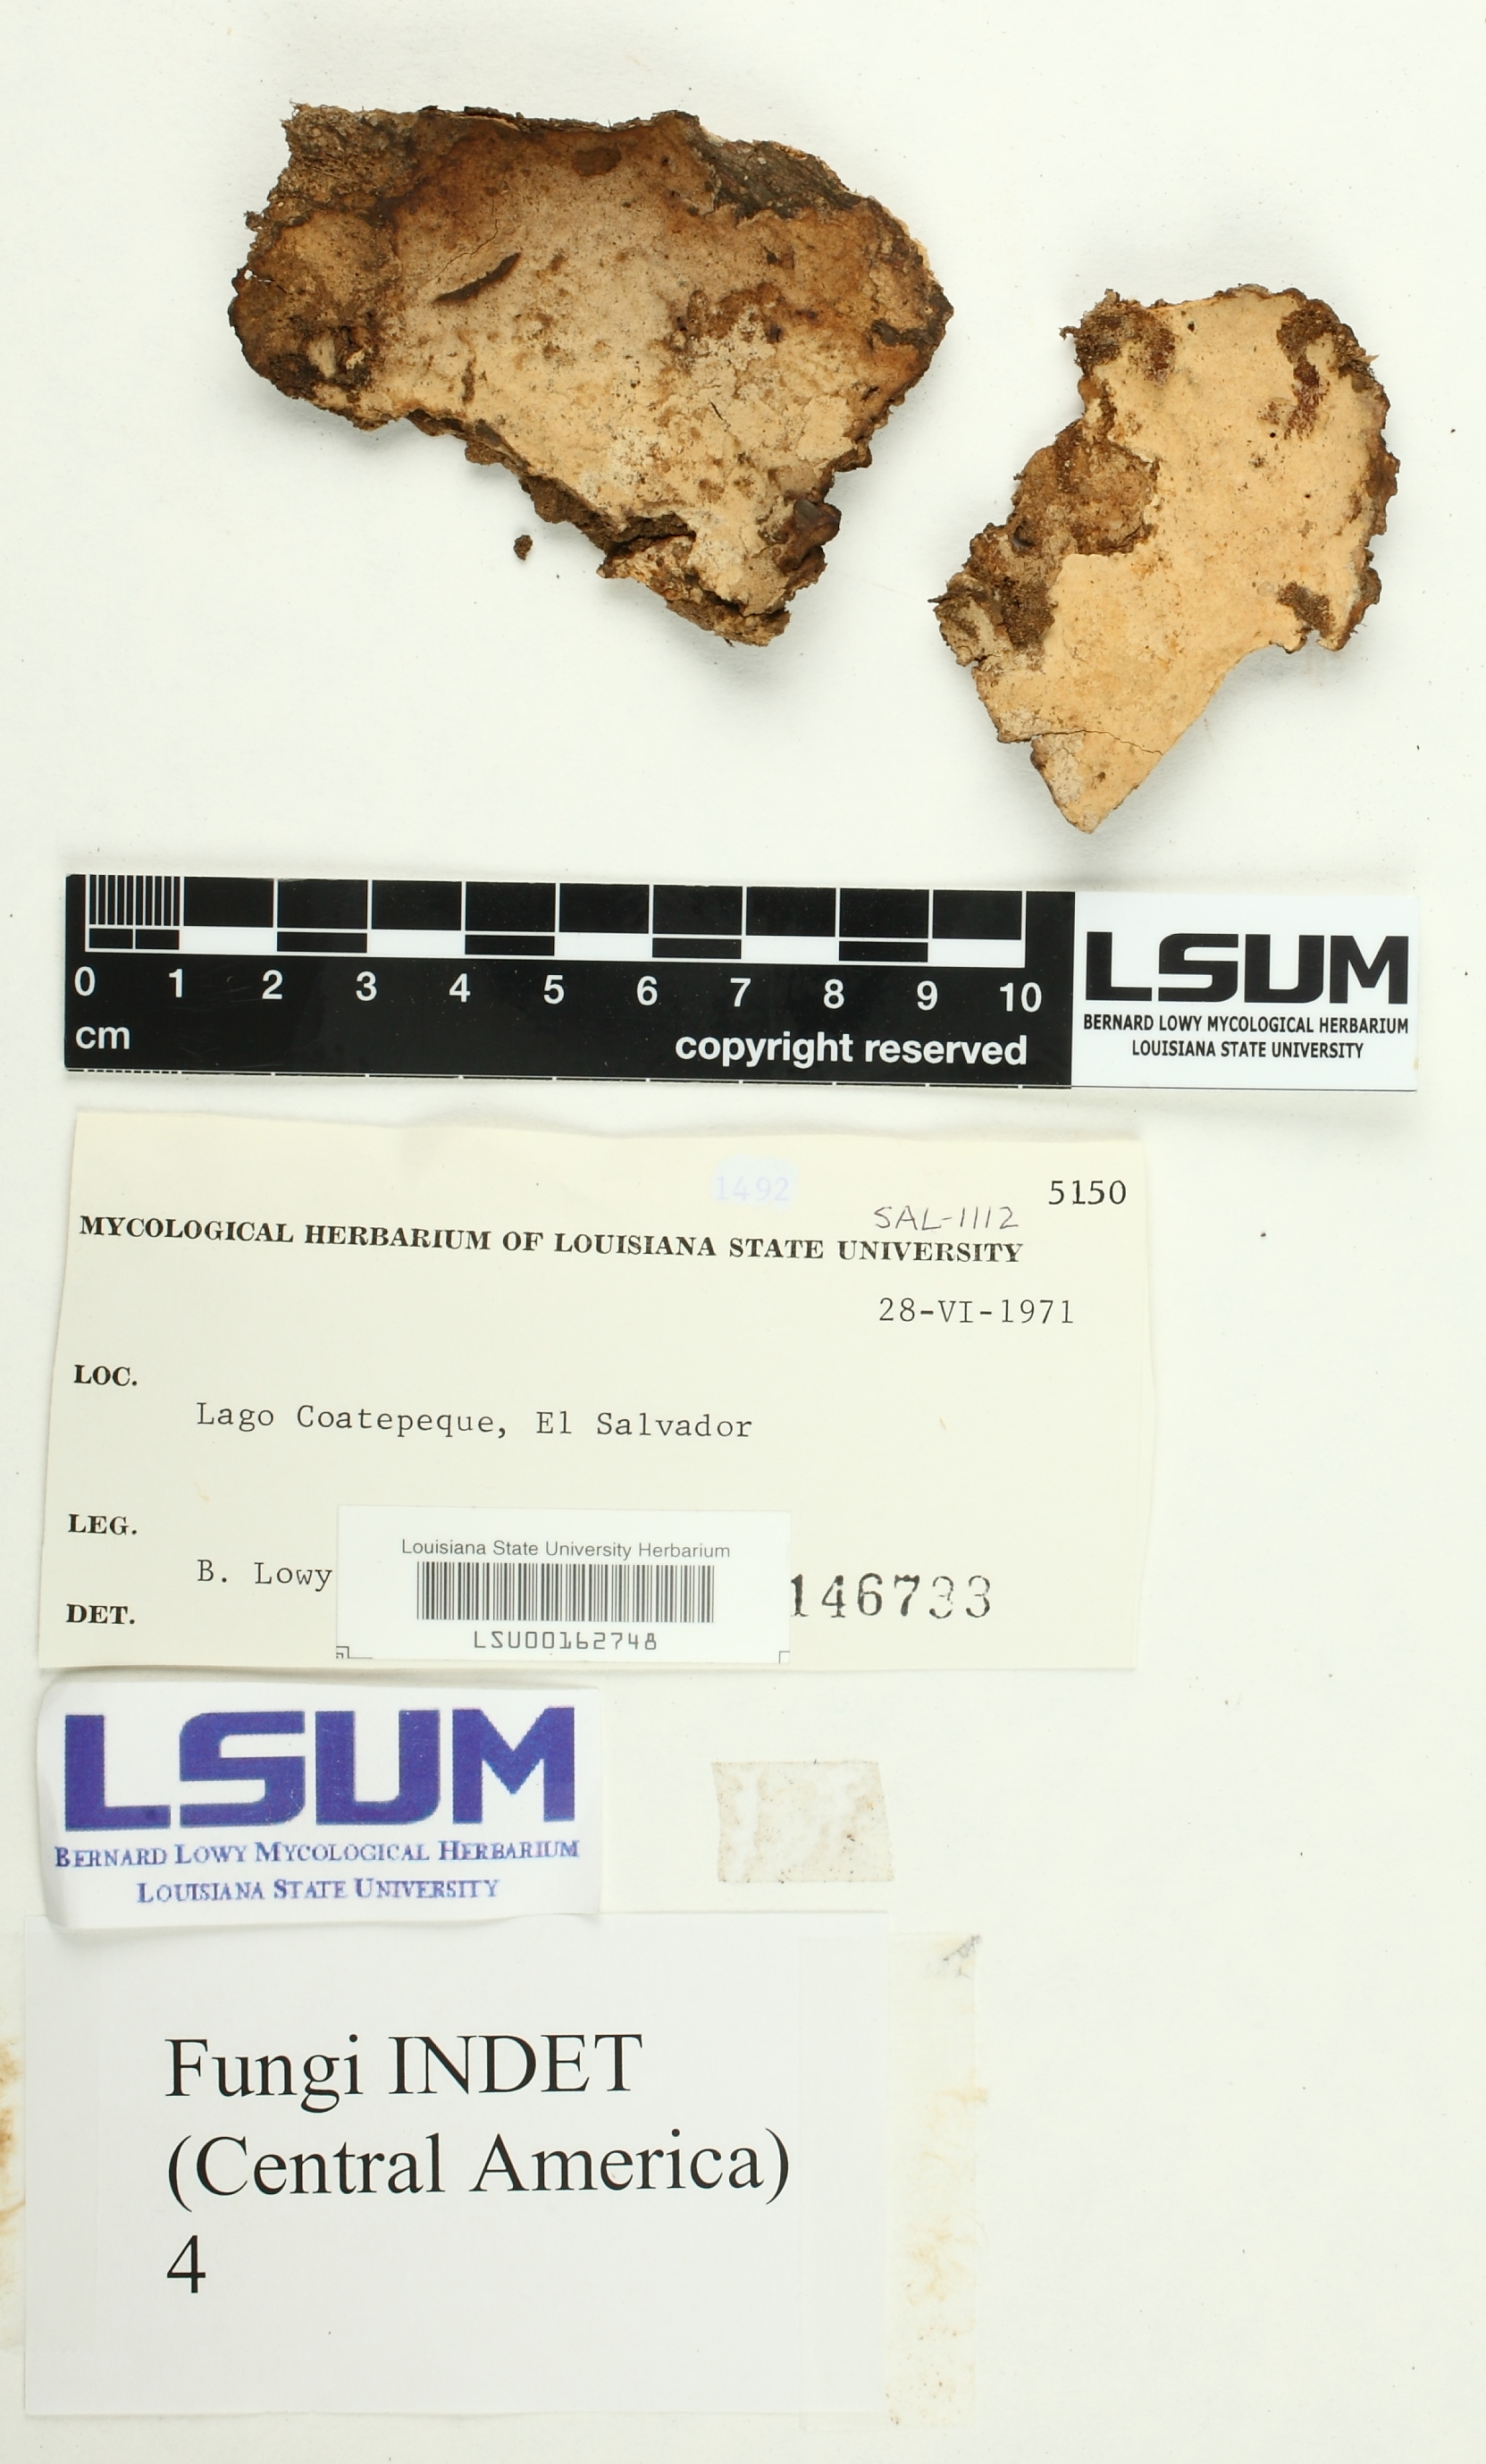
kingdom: Fungi
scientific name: Fungi
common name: Fungi
